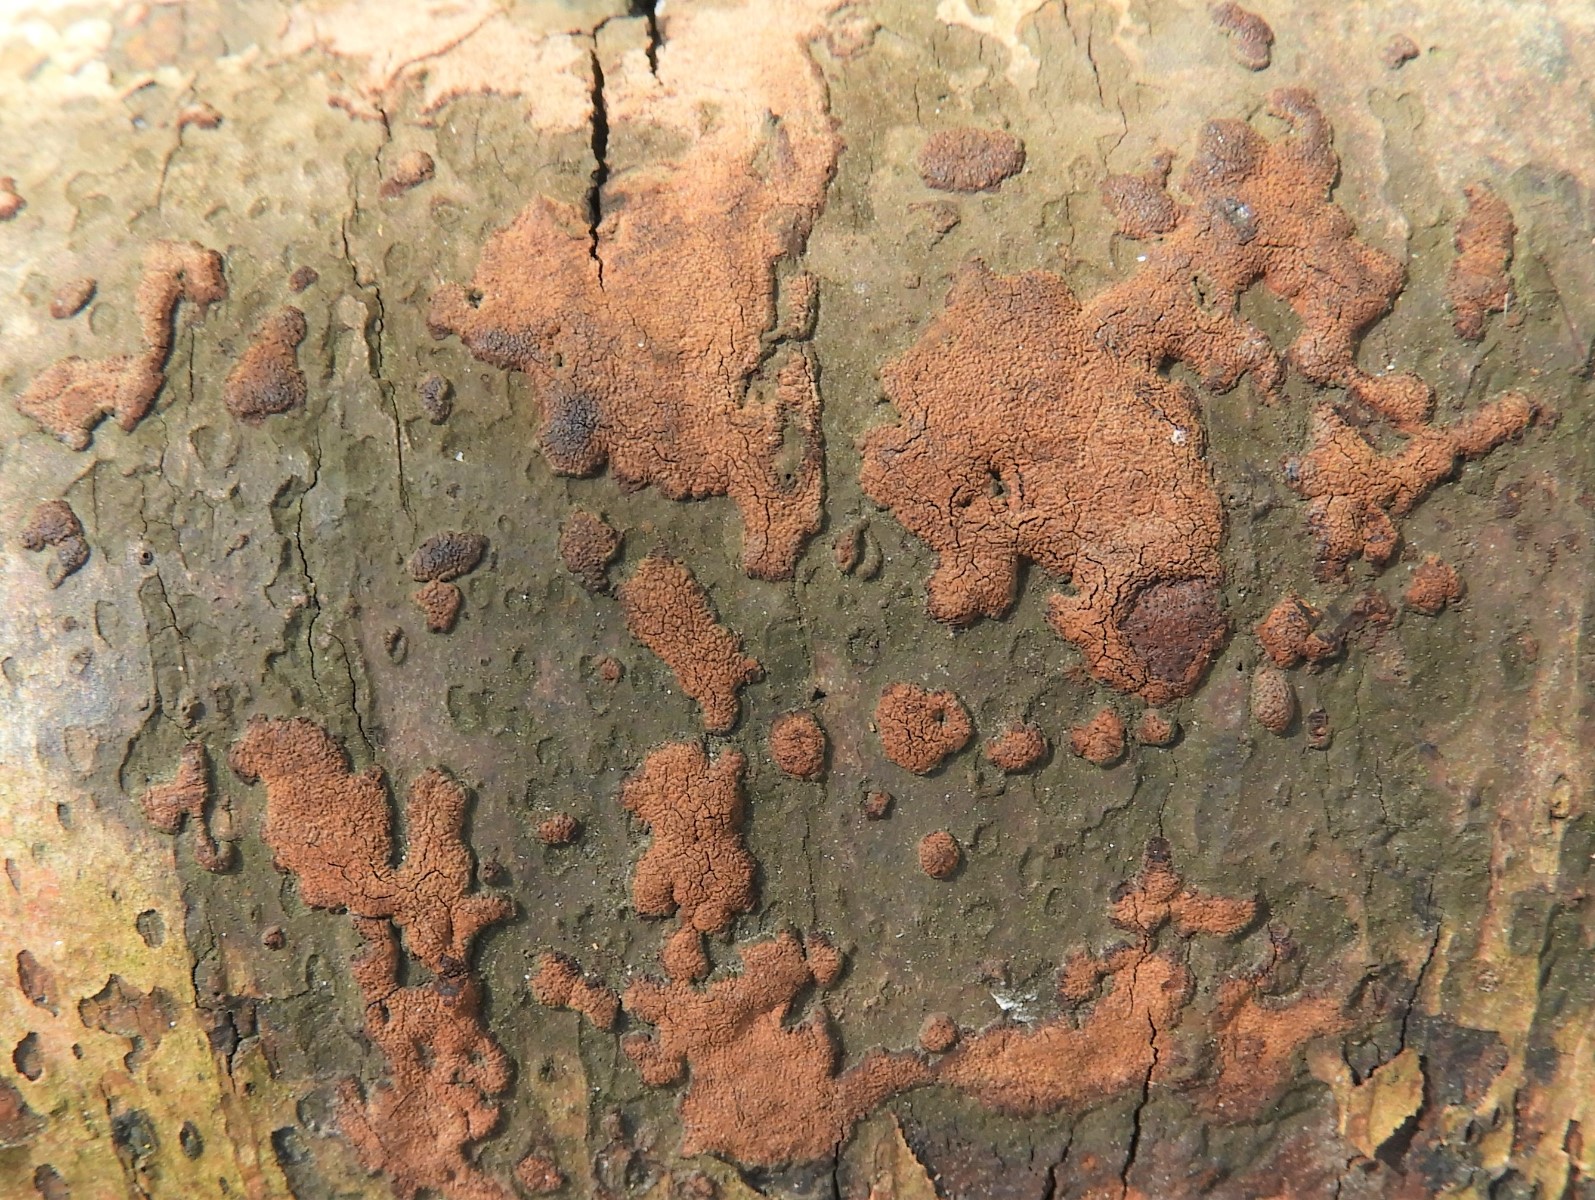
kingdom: Fungi
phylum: Ascomycota
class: Sordariomycetes
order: Xylariales
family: Hypoxylaceae
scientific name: Hypoxylaceae
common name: kulbærfamilien
